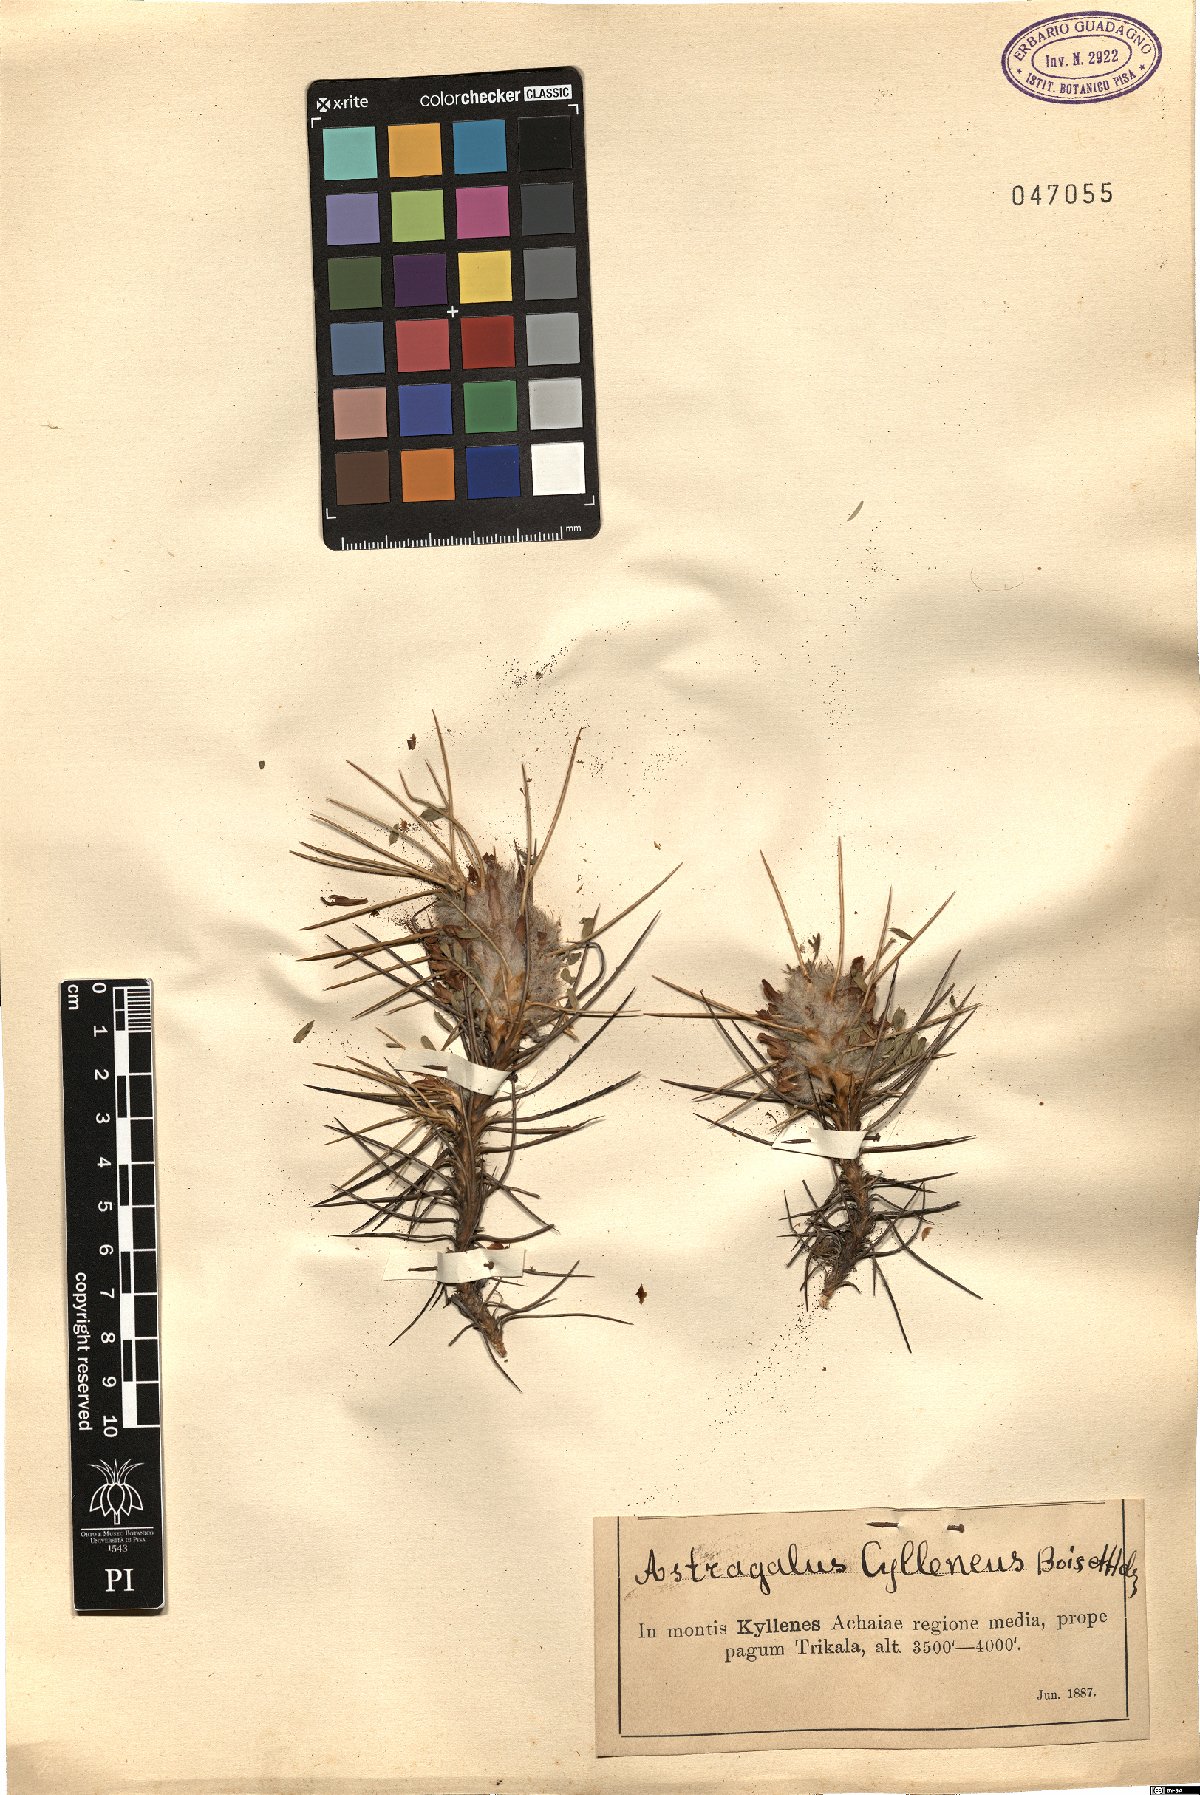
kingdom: Plantae
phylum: Tracheophyta
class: Magnoliopsida
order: Fabales
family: Fabaceae
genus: Astragalus
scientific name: Astragalus cylleneus
